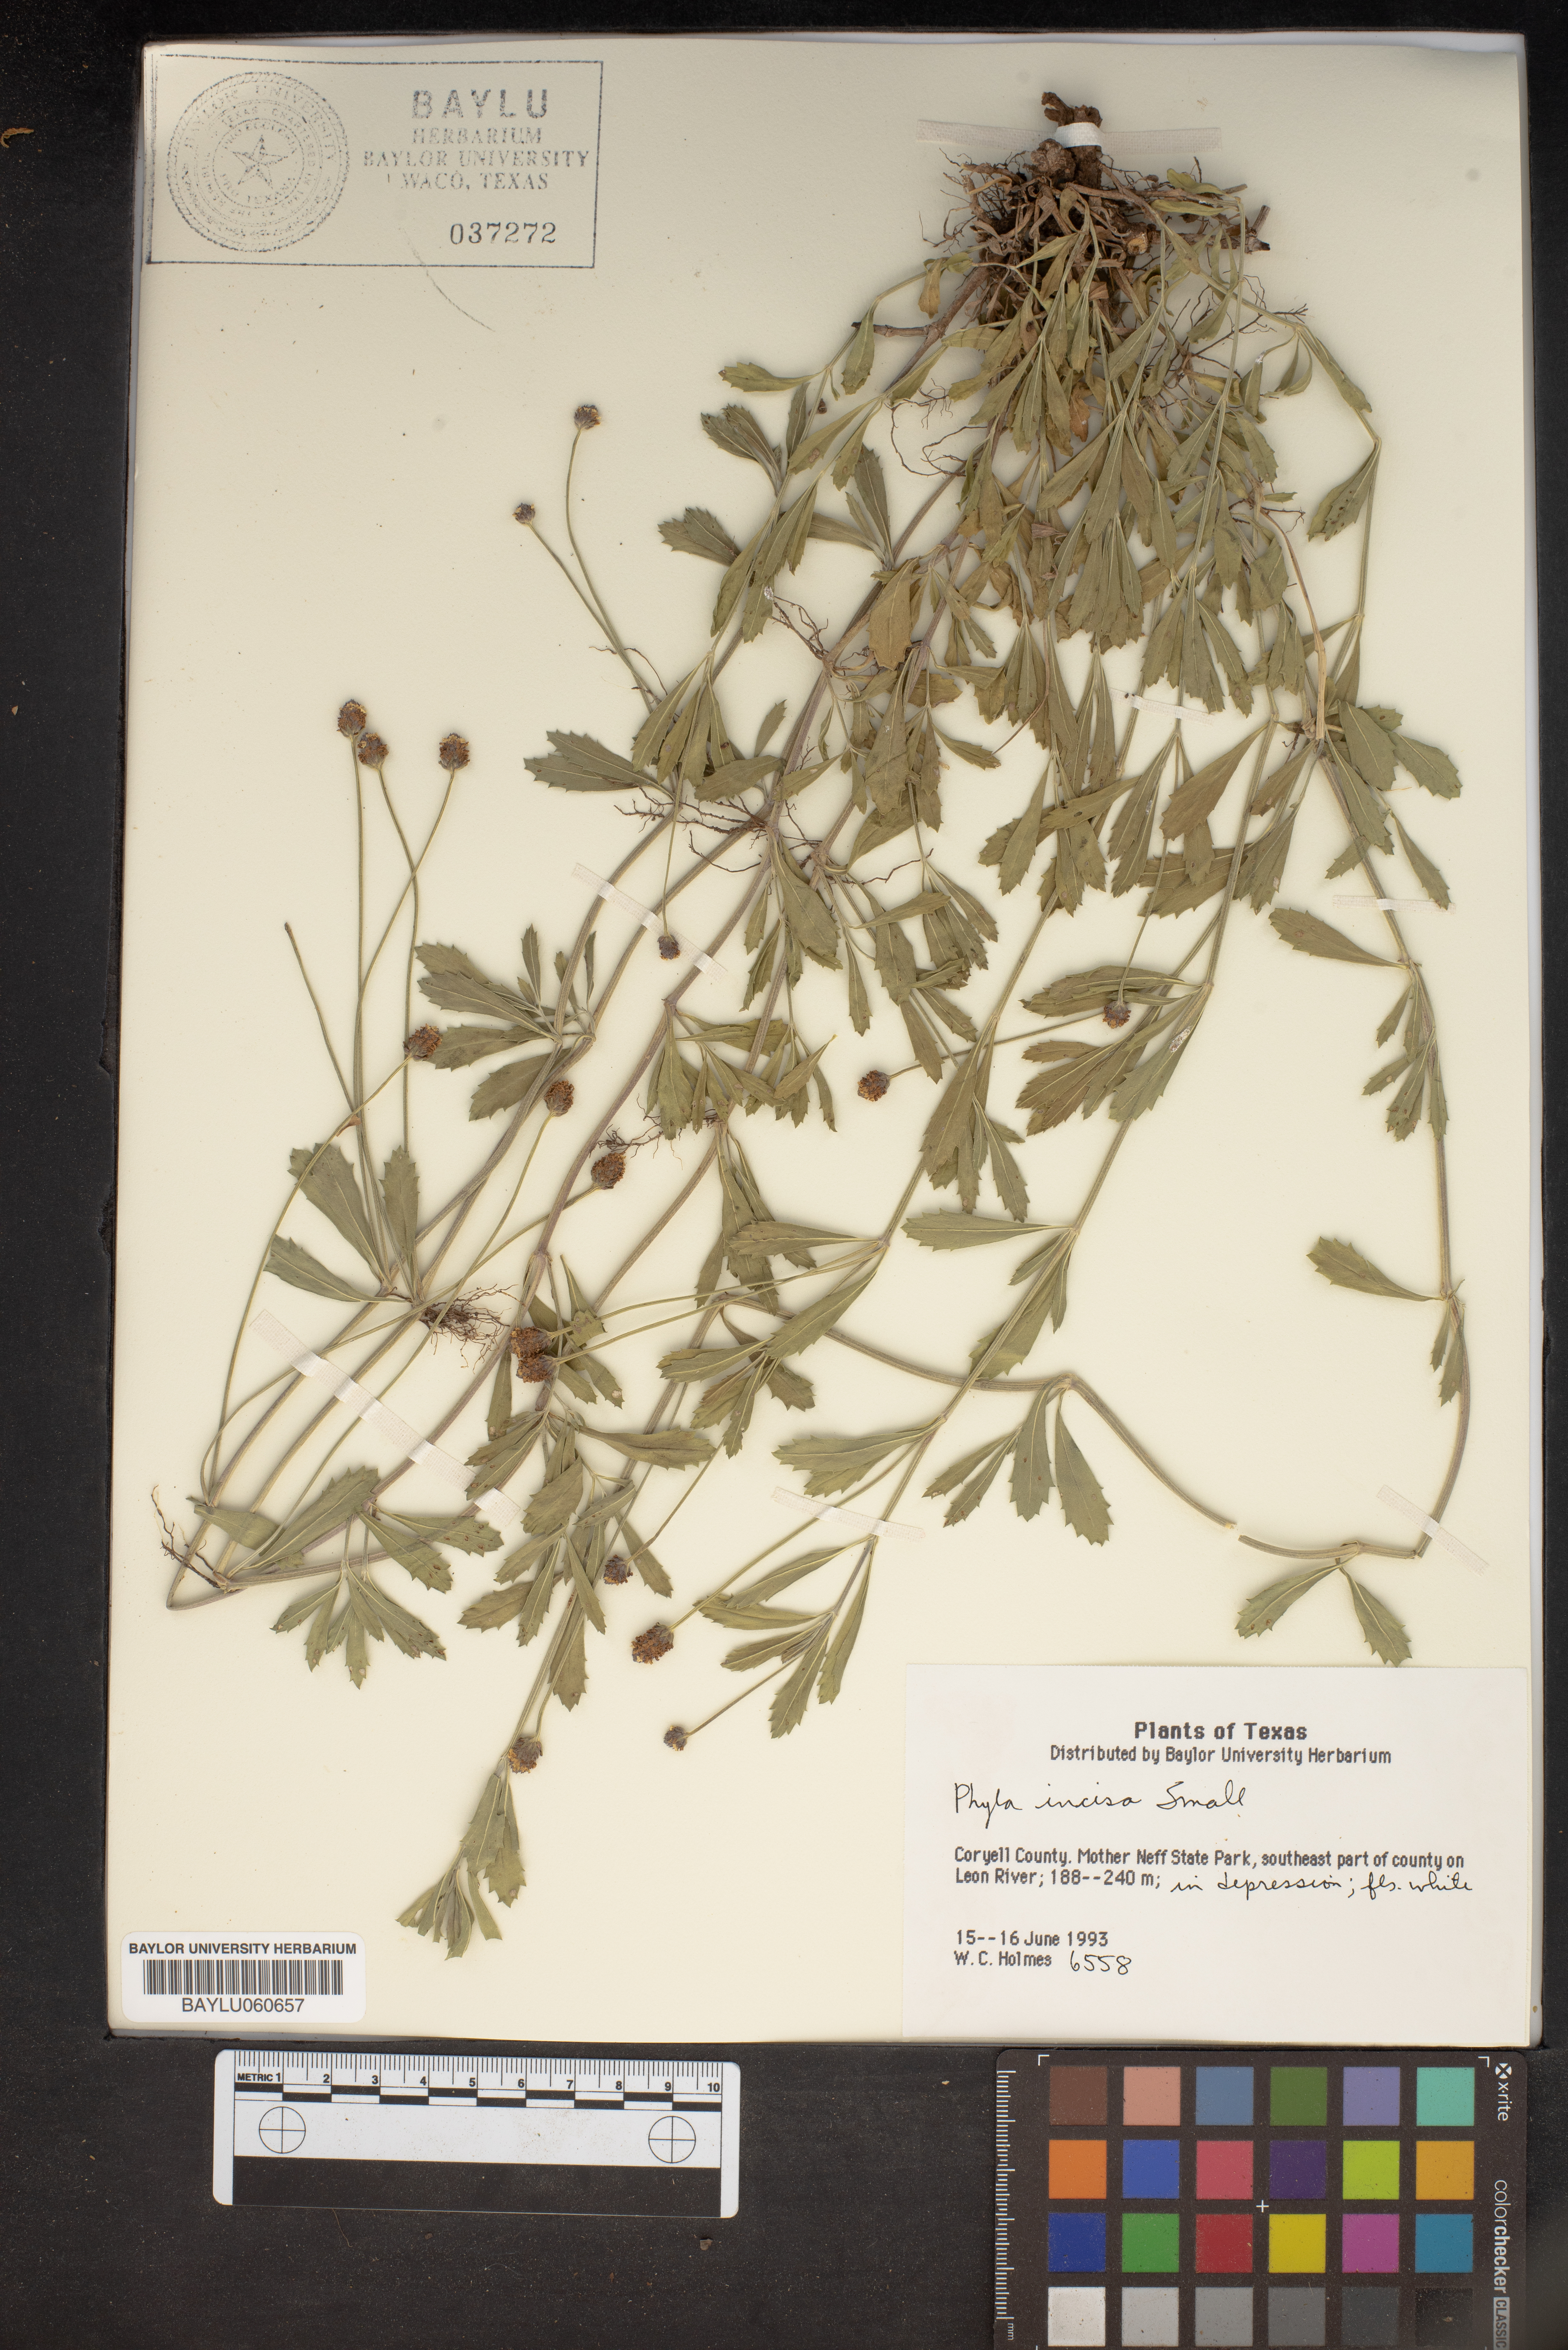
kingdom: Plantae
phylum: Tracheophyta
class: Magnoliopsida
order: Lamiales
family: Verbenaceae
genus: Phyla
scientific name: Phyla nodiflora
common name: Frogfruit
